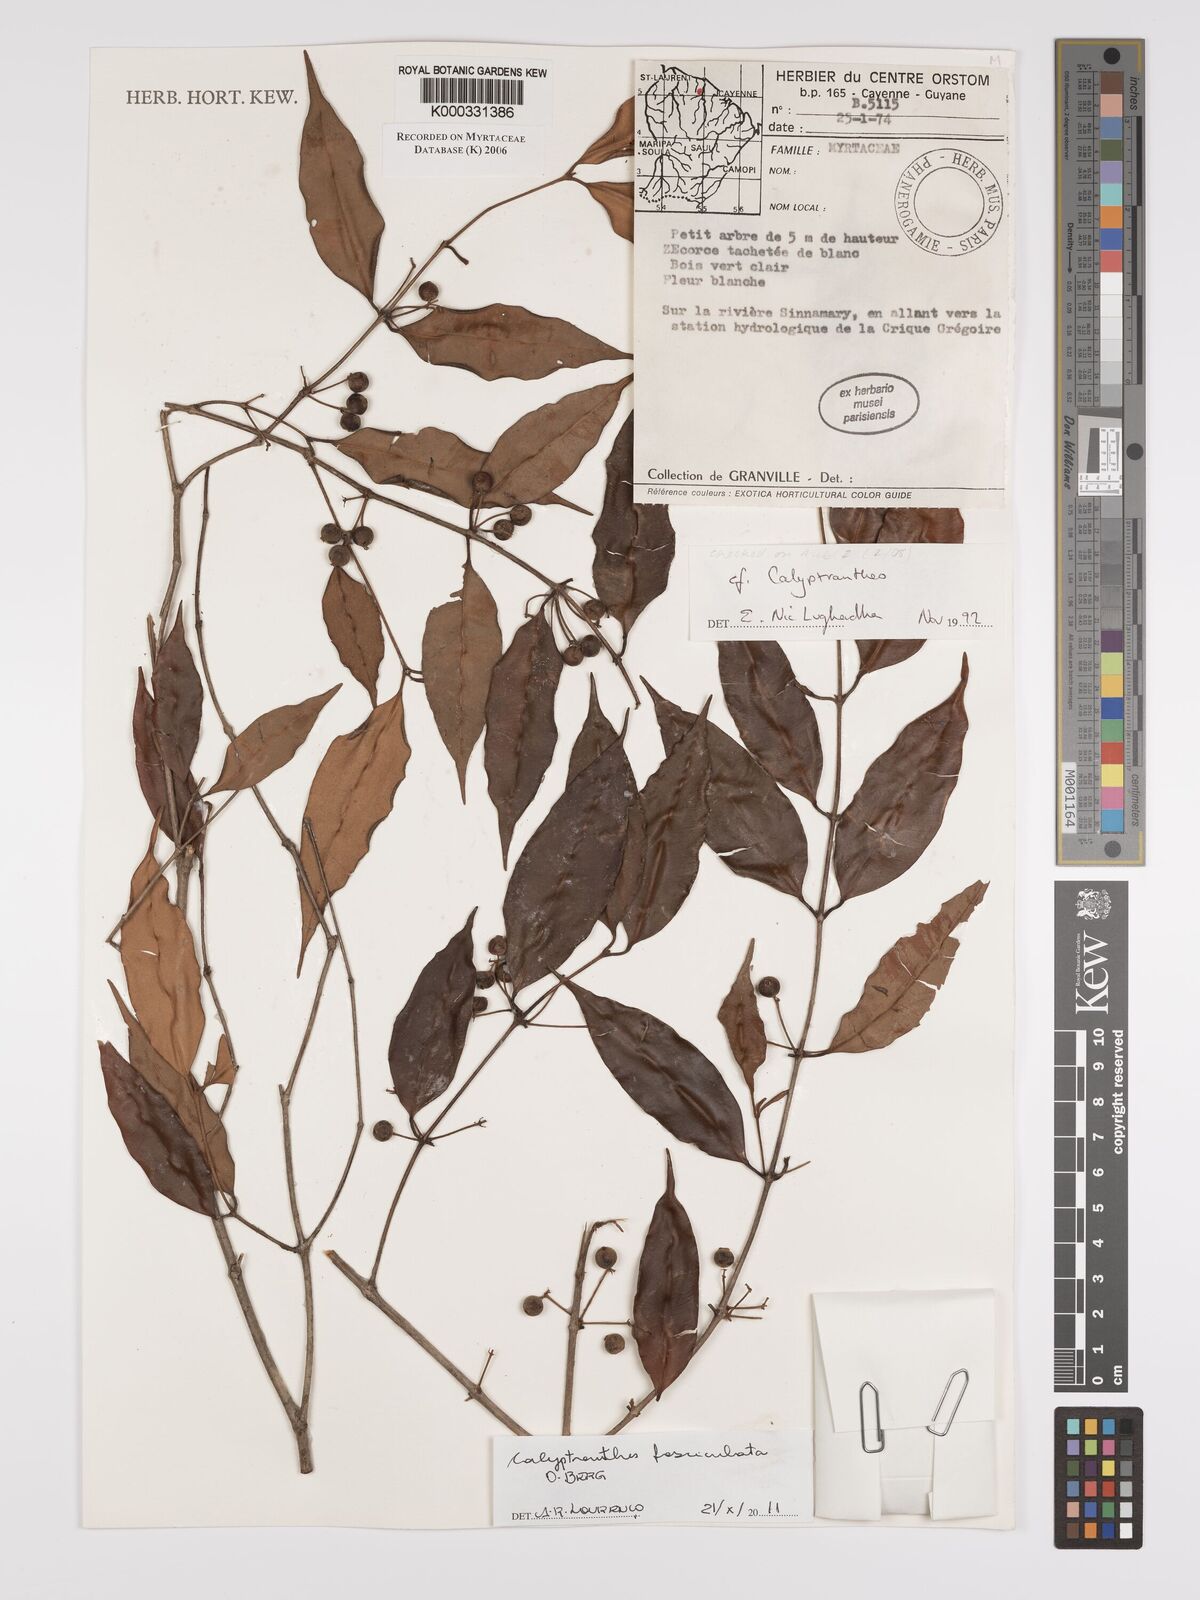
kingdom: Plantae
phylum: Tracheophyta
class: Magnoliopsida
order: Myrtales
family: Myrtaceae
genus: Calyptranthes
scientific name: Calyptranthes
